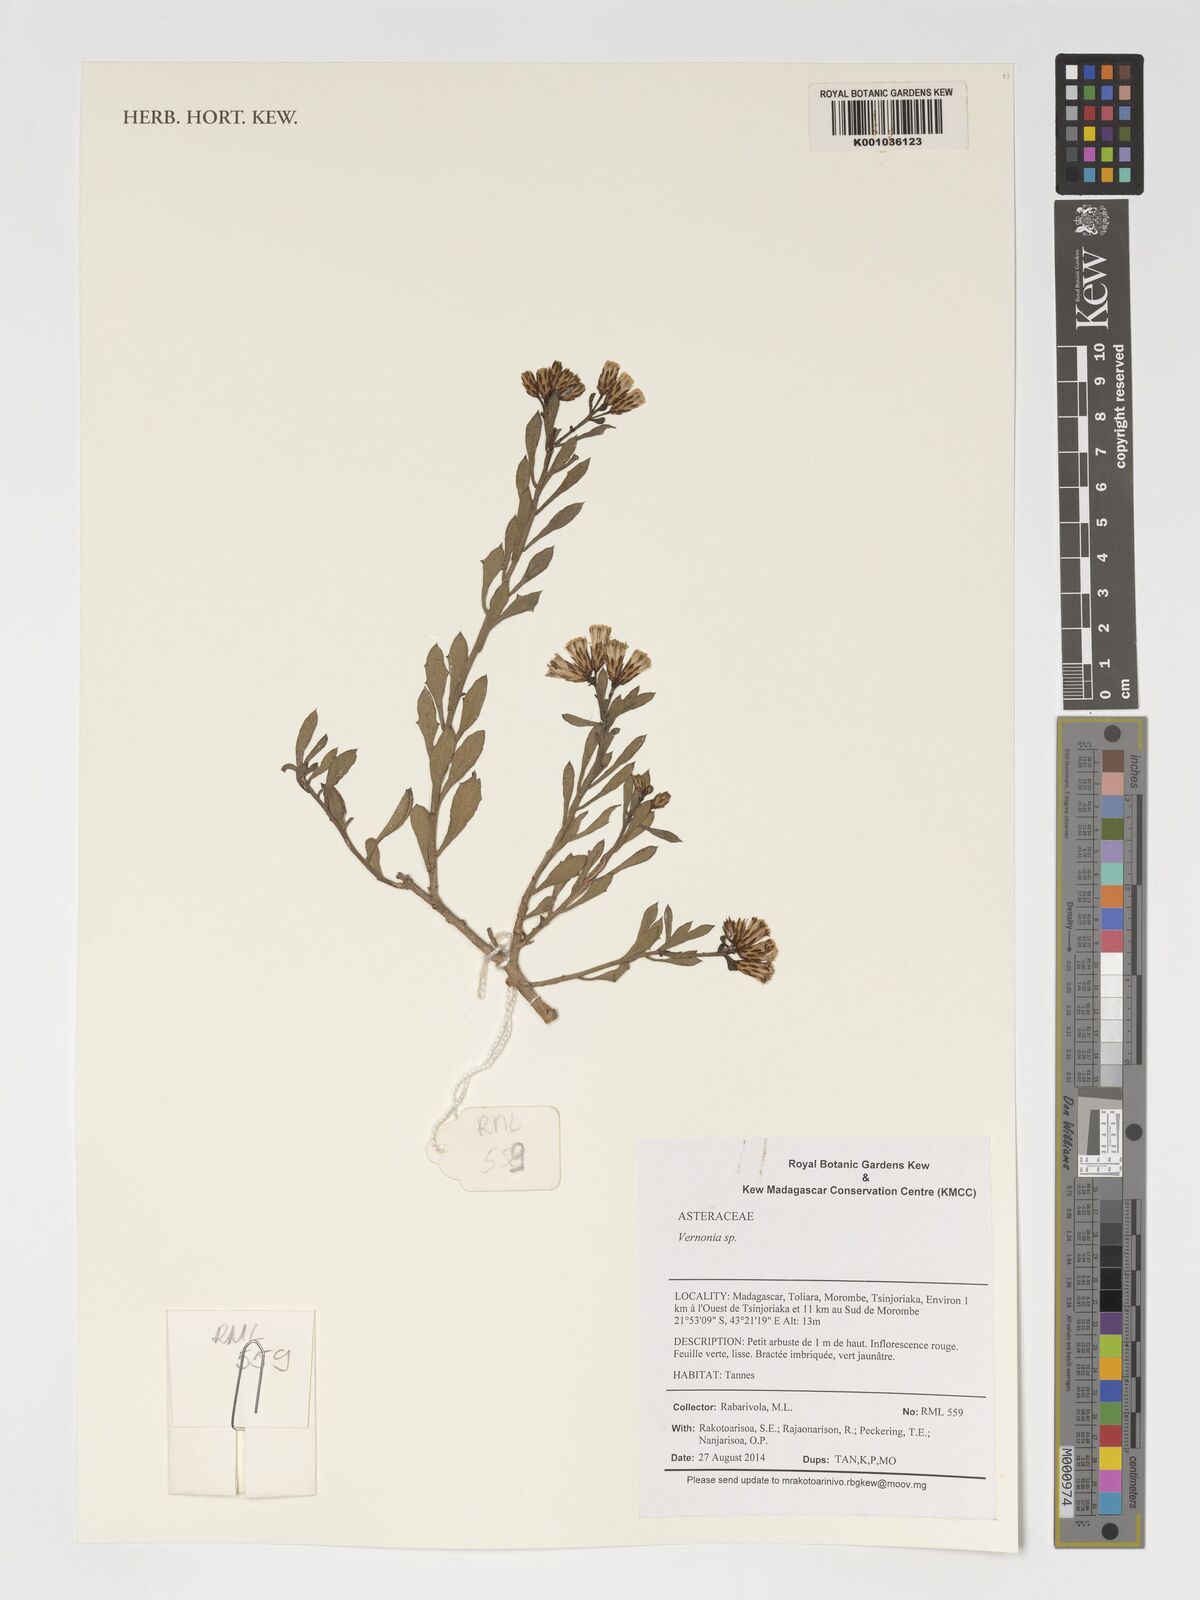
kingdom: Plantae
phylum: Tracheophyta
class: Magnoliopsida
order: Asterales
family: Asteraceae
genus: Vernonia
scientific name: Vernonia
